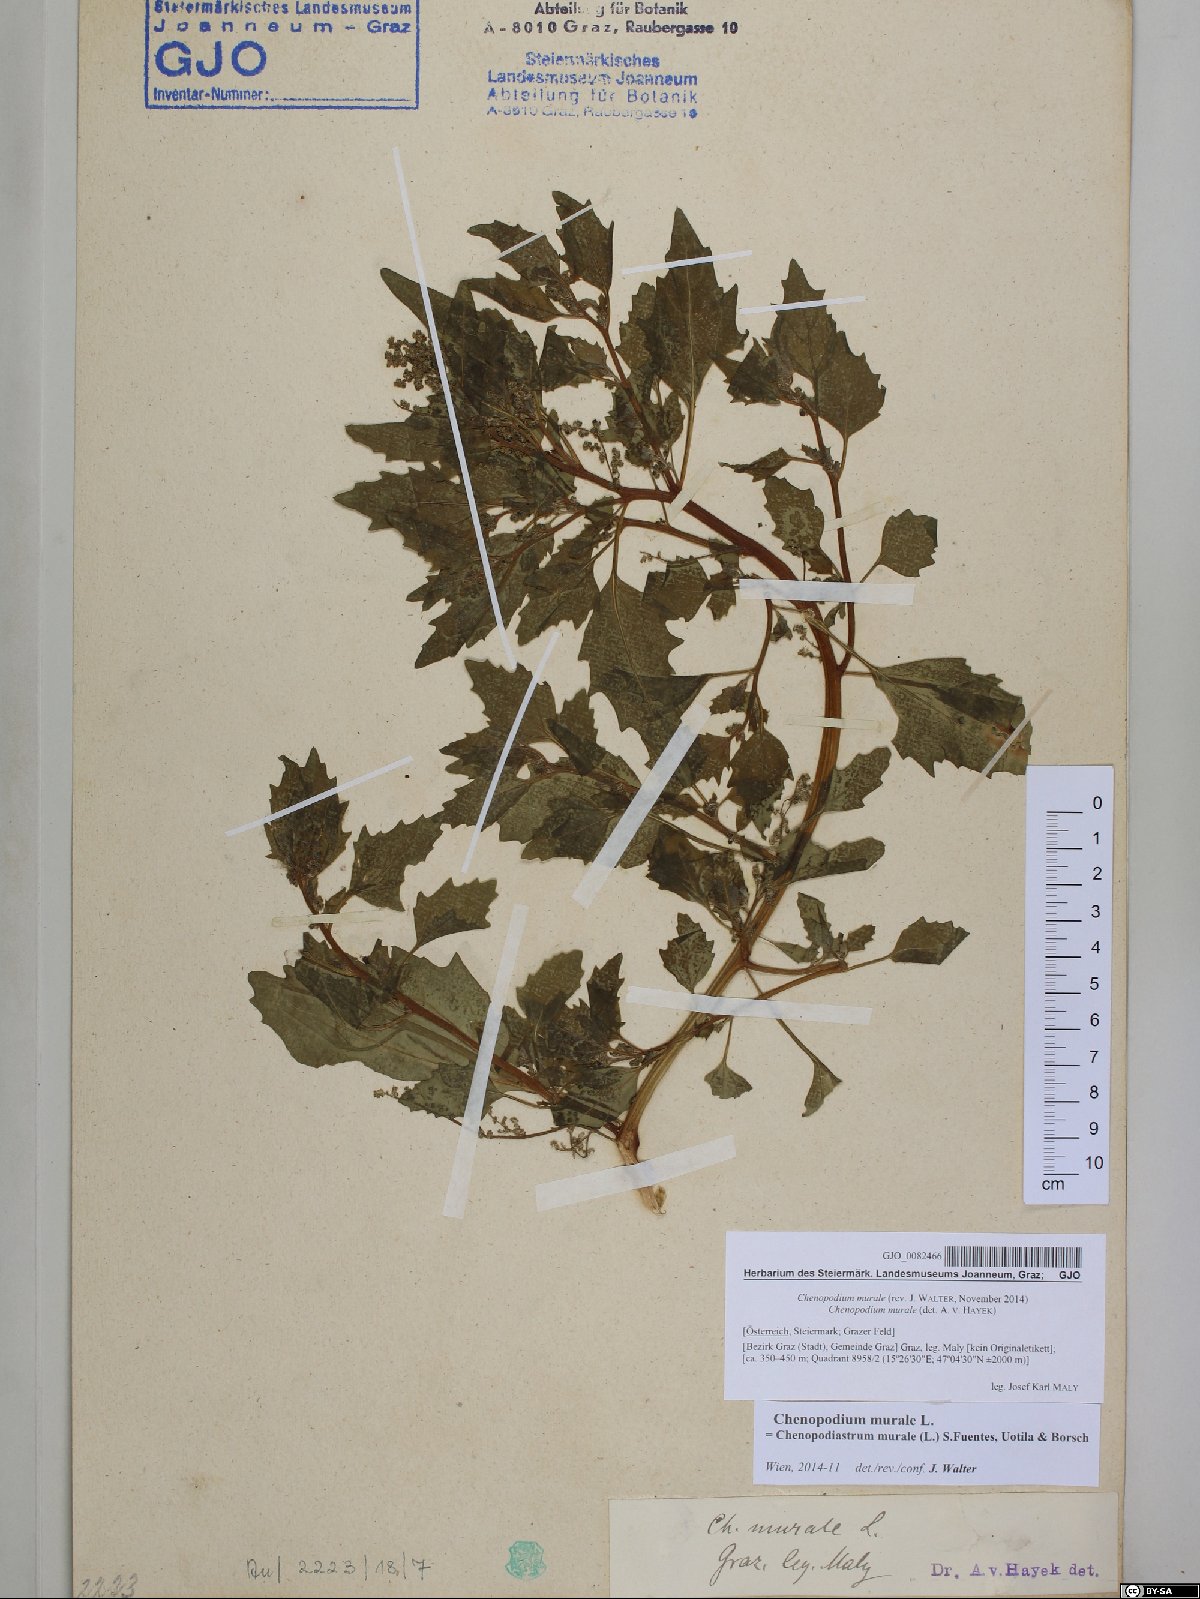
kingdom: Plantae
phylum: Tracheophyta
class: Magnoliopsida
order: Caryophyllales
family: Amaranthaceae
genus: Chenopodiastrum
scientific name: Chenopodiastrum murale
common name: Sowbane
